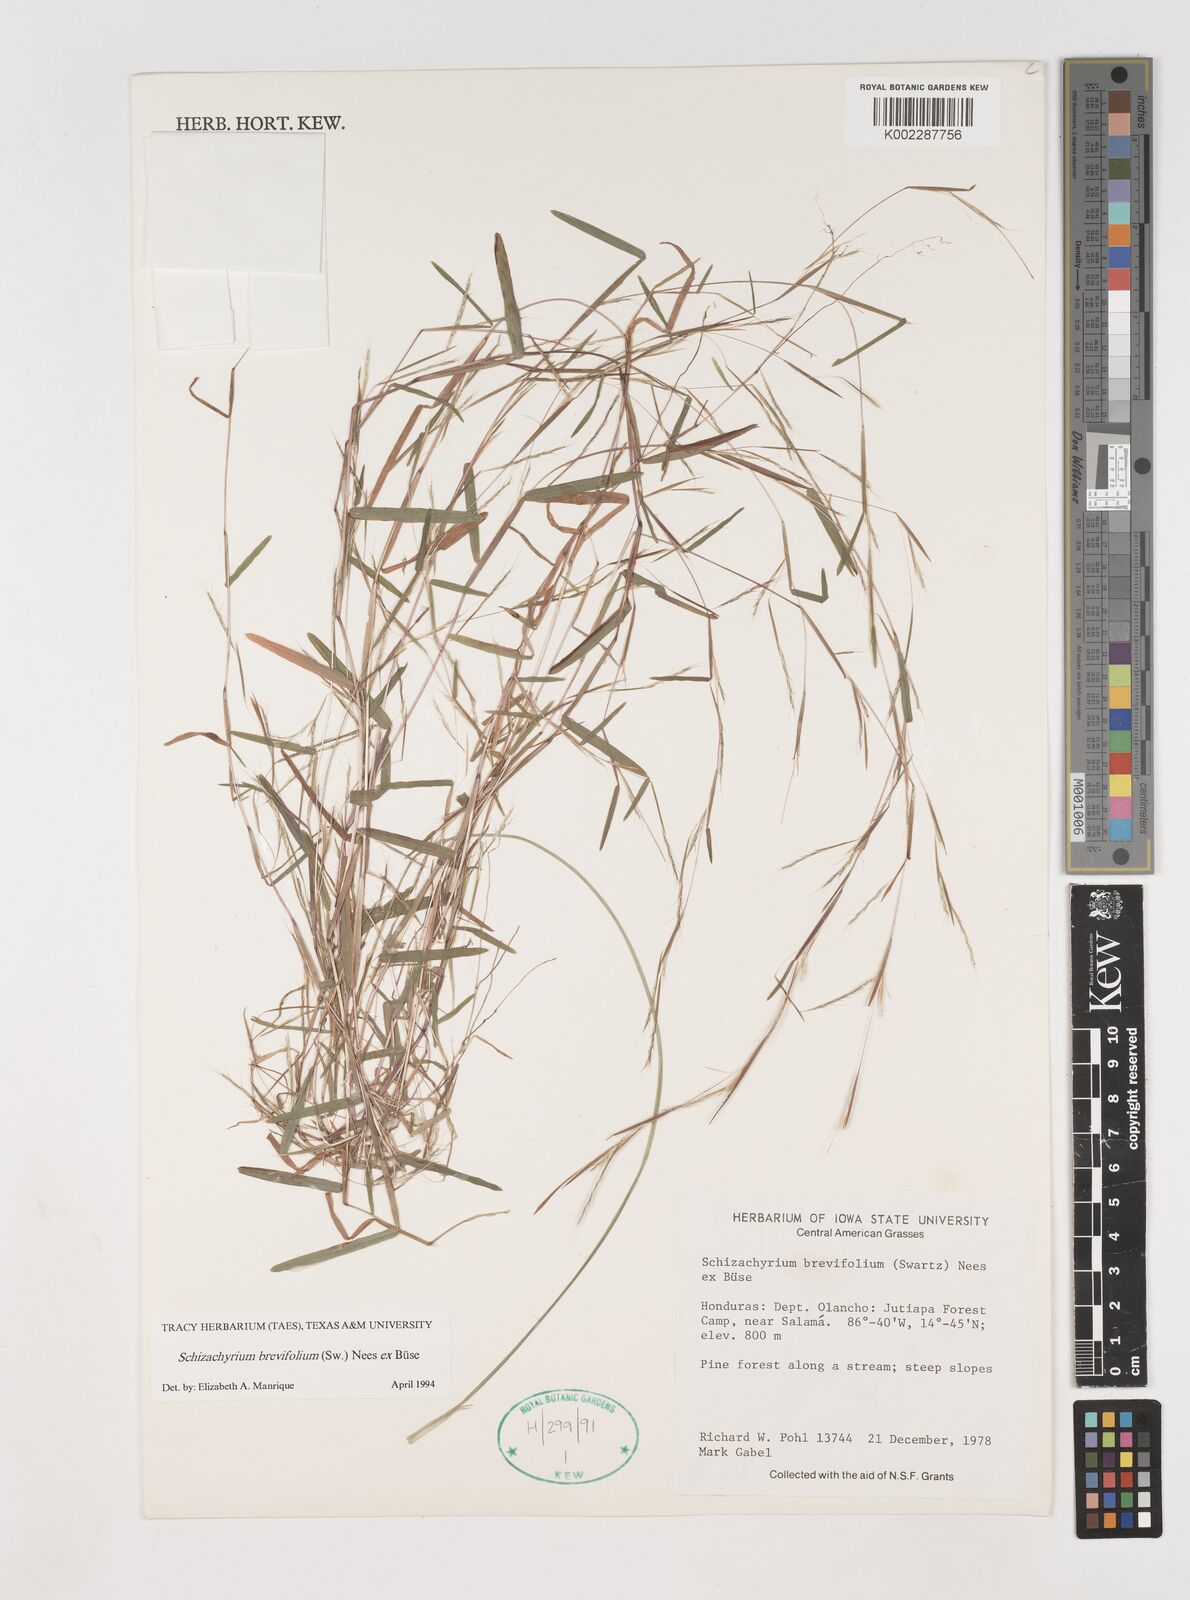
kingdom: Plantae
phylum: Tracheophyta
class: Liliopsida
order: Poales
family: Poaceae
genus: Schizachyrium
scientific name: Schizachyrium brevifolium
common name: Serillo dulce
